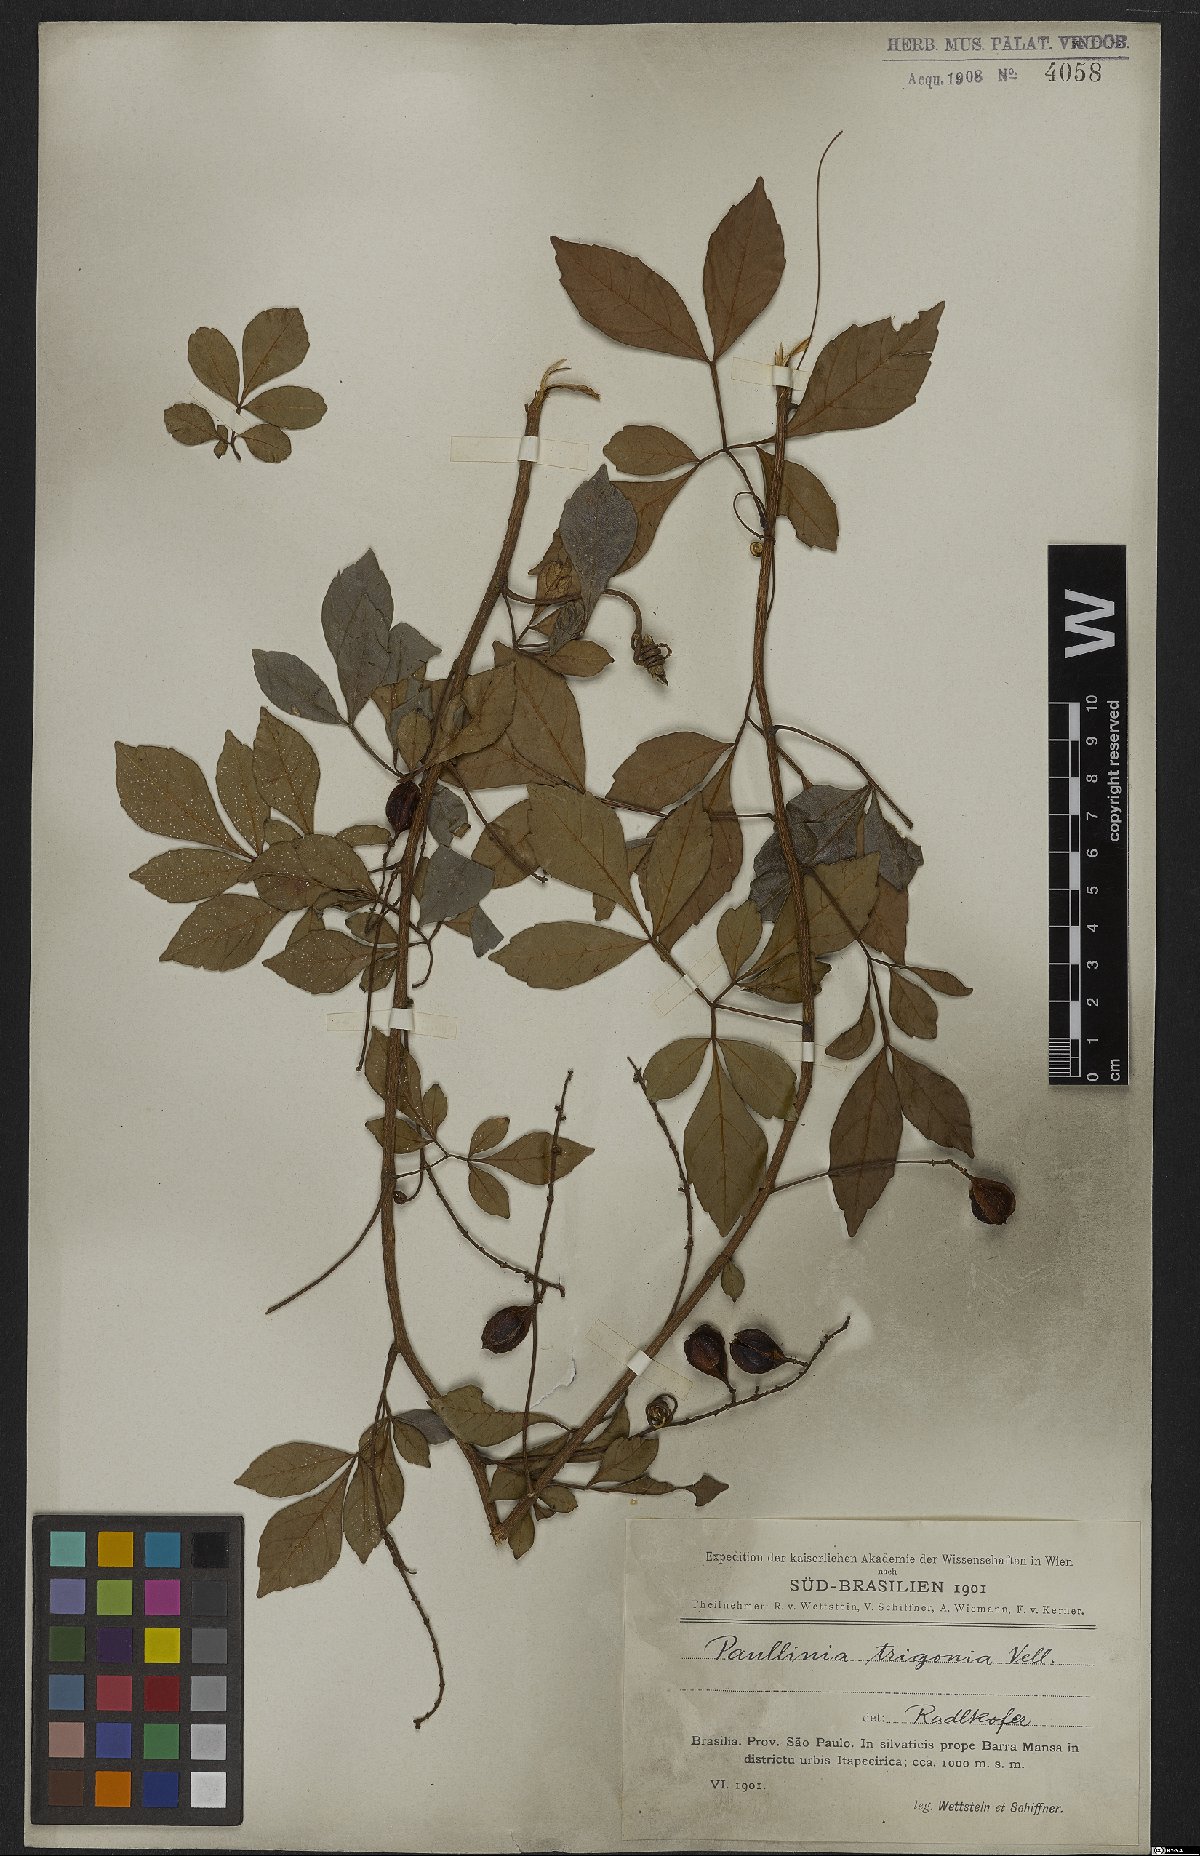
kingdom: Plantae
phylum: Tracheophyta
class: Magnoliopsida
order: Sapindales
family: Sapindaceae
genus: Paullinia
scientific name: Paullinia trigonia
